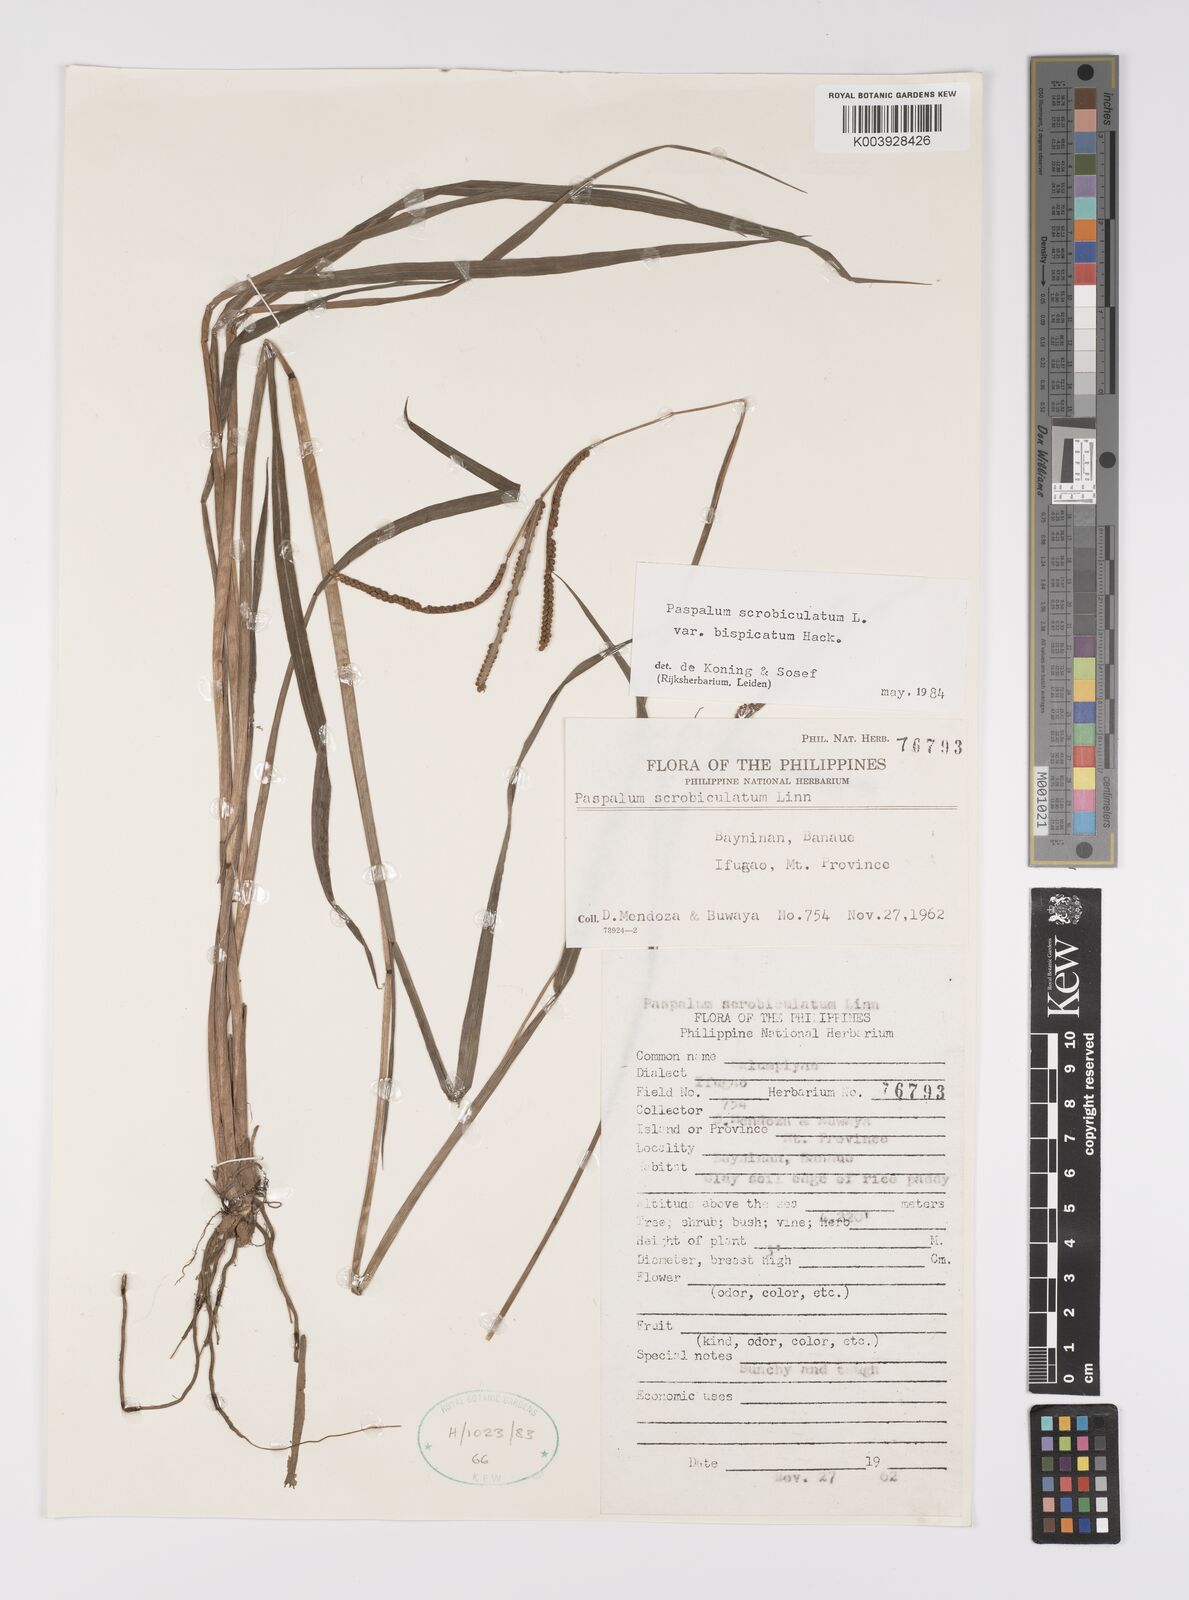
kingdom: Plantae
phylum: Tracheophyta
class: Liliopsida
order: Poales
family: Poaceae
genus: Paspalum
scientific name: Paspalum scrobiculatum
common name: Kodo millet
